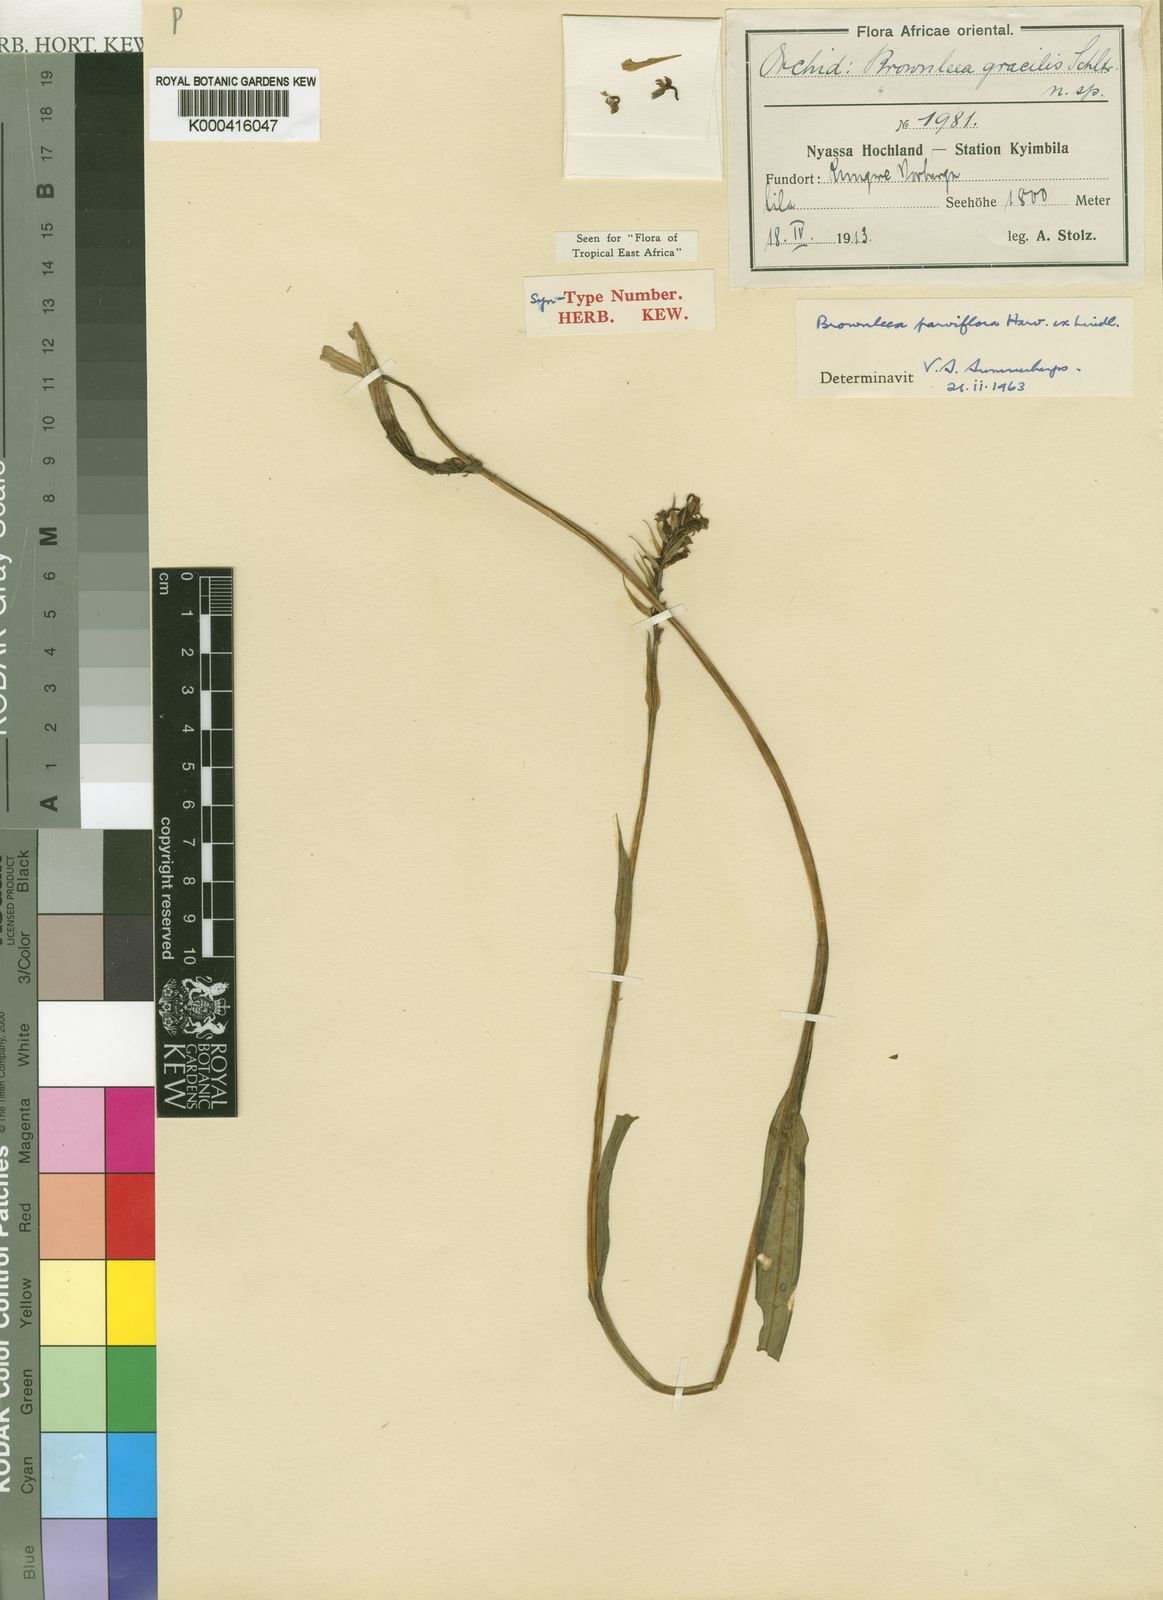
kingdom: Plantae
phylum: Tracheophyta
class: Liliopsida
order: Asparagales
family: Orchidaceae
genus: Brownleea
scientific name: Brownleea parviflora
